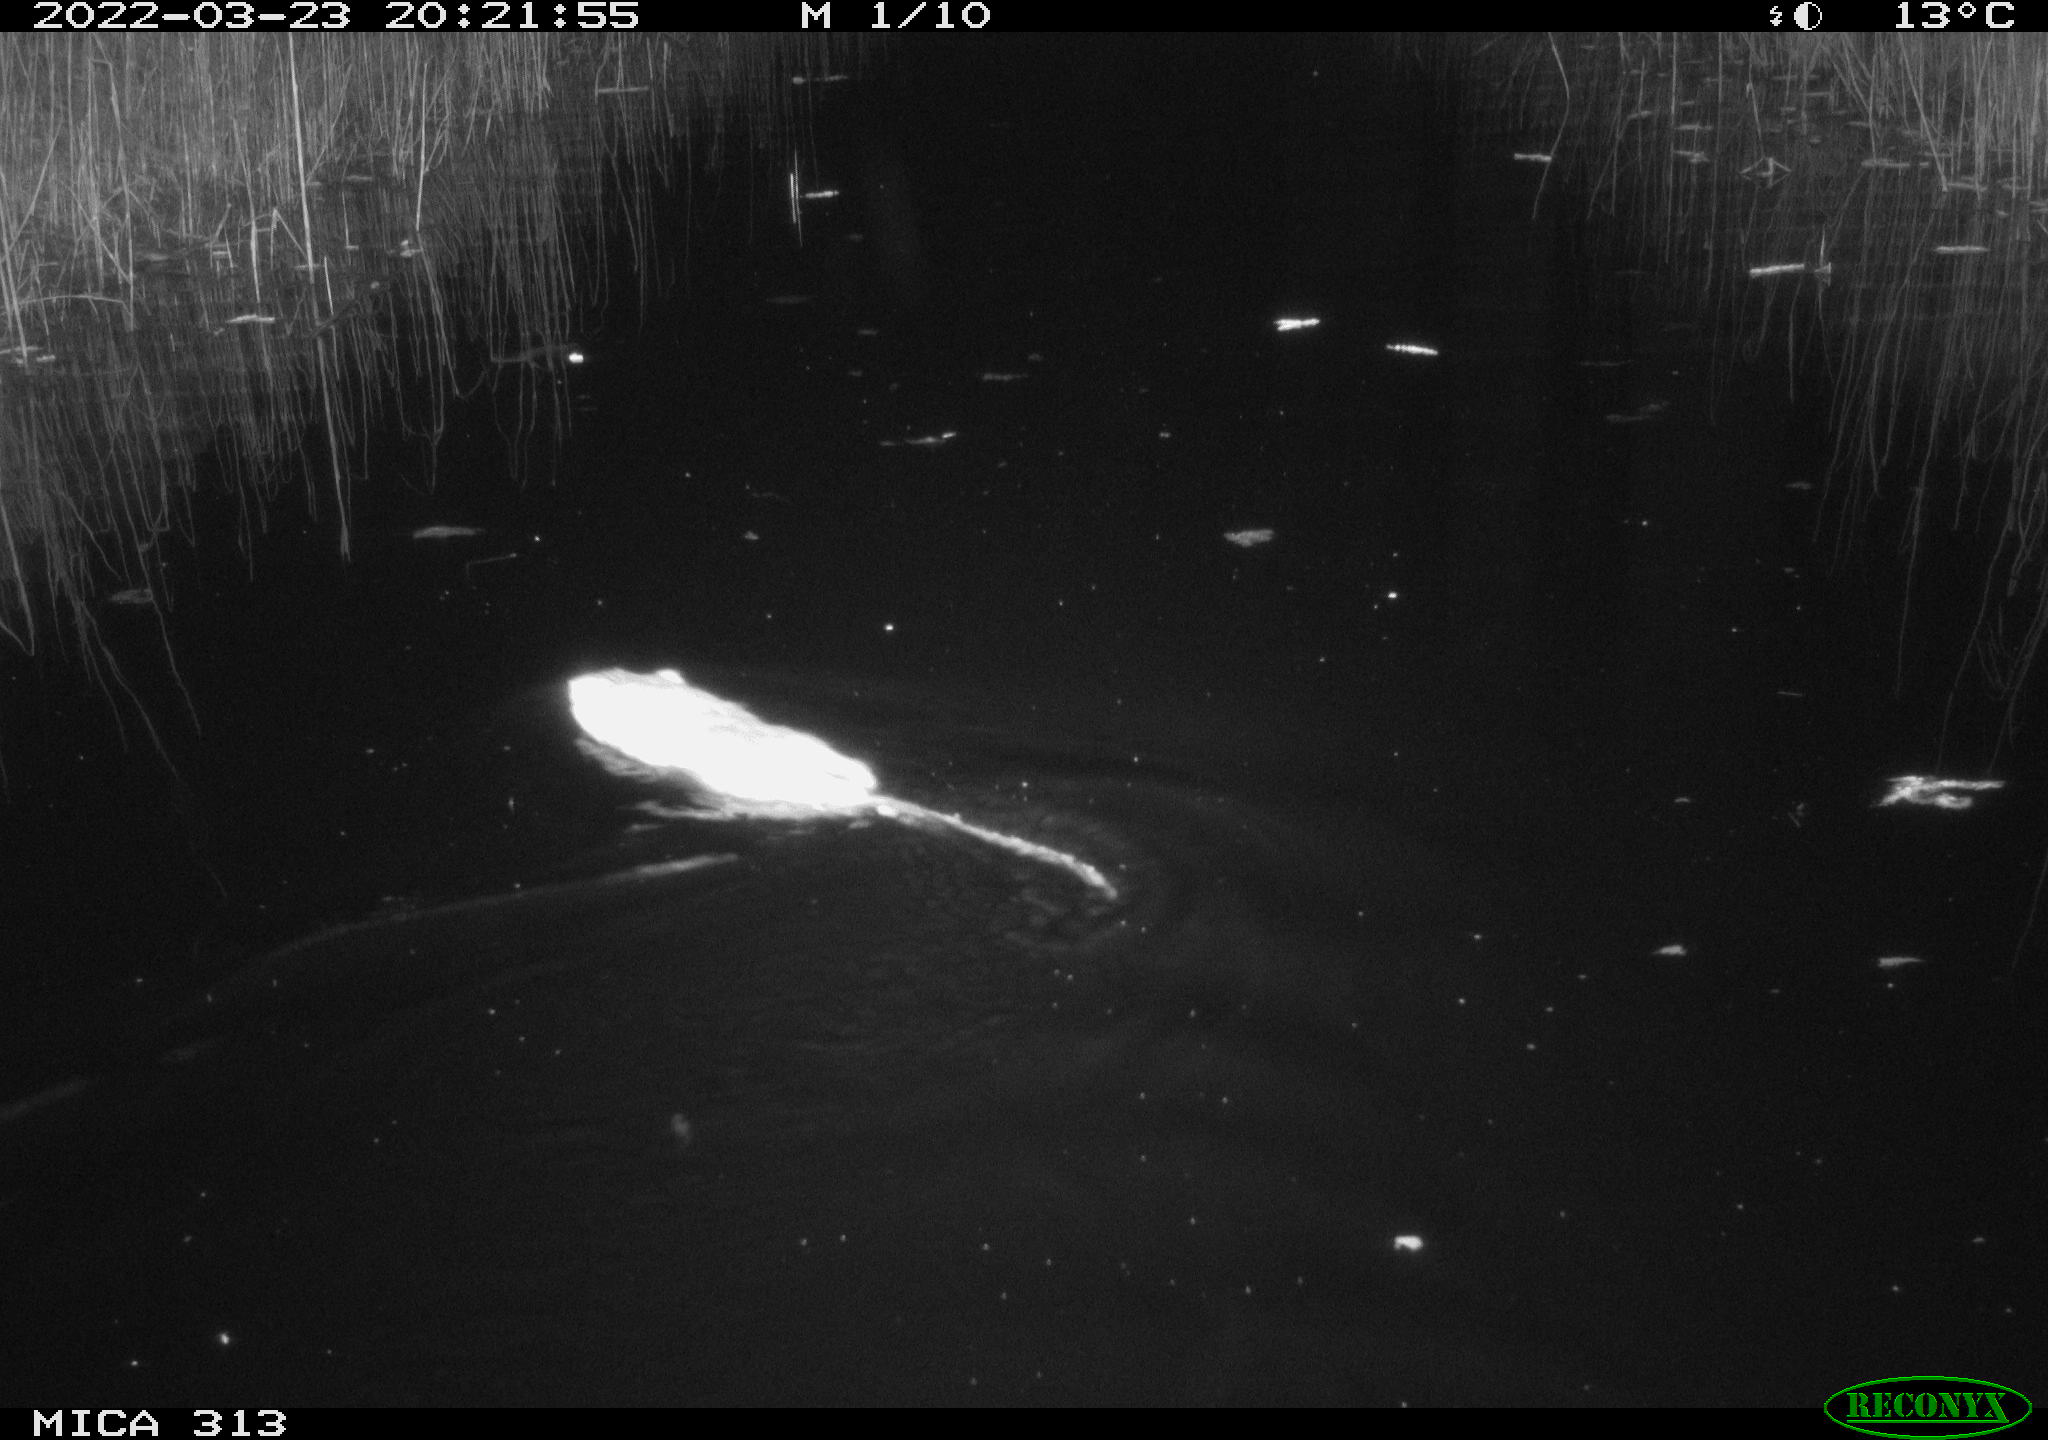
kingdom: Animalia
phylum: Chordata
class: Mammalia
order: Rodentia
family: Cricetidae
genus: Ondatra
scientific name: Ondatra zibethicus
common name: Muskrat
